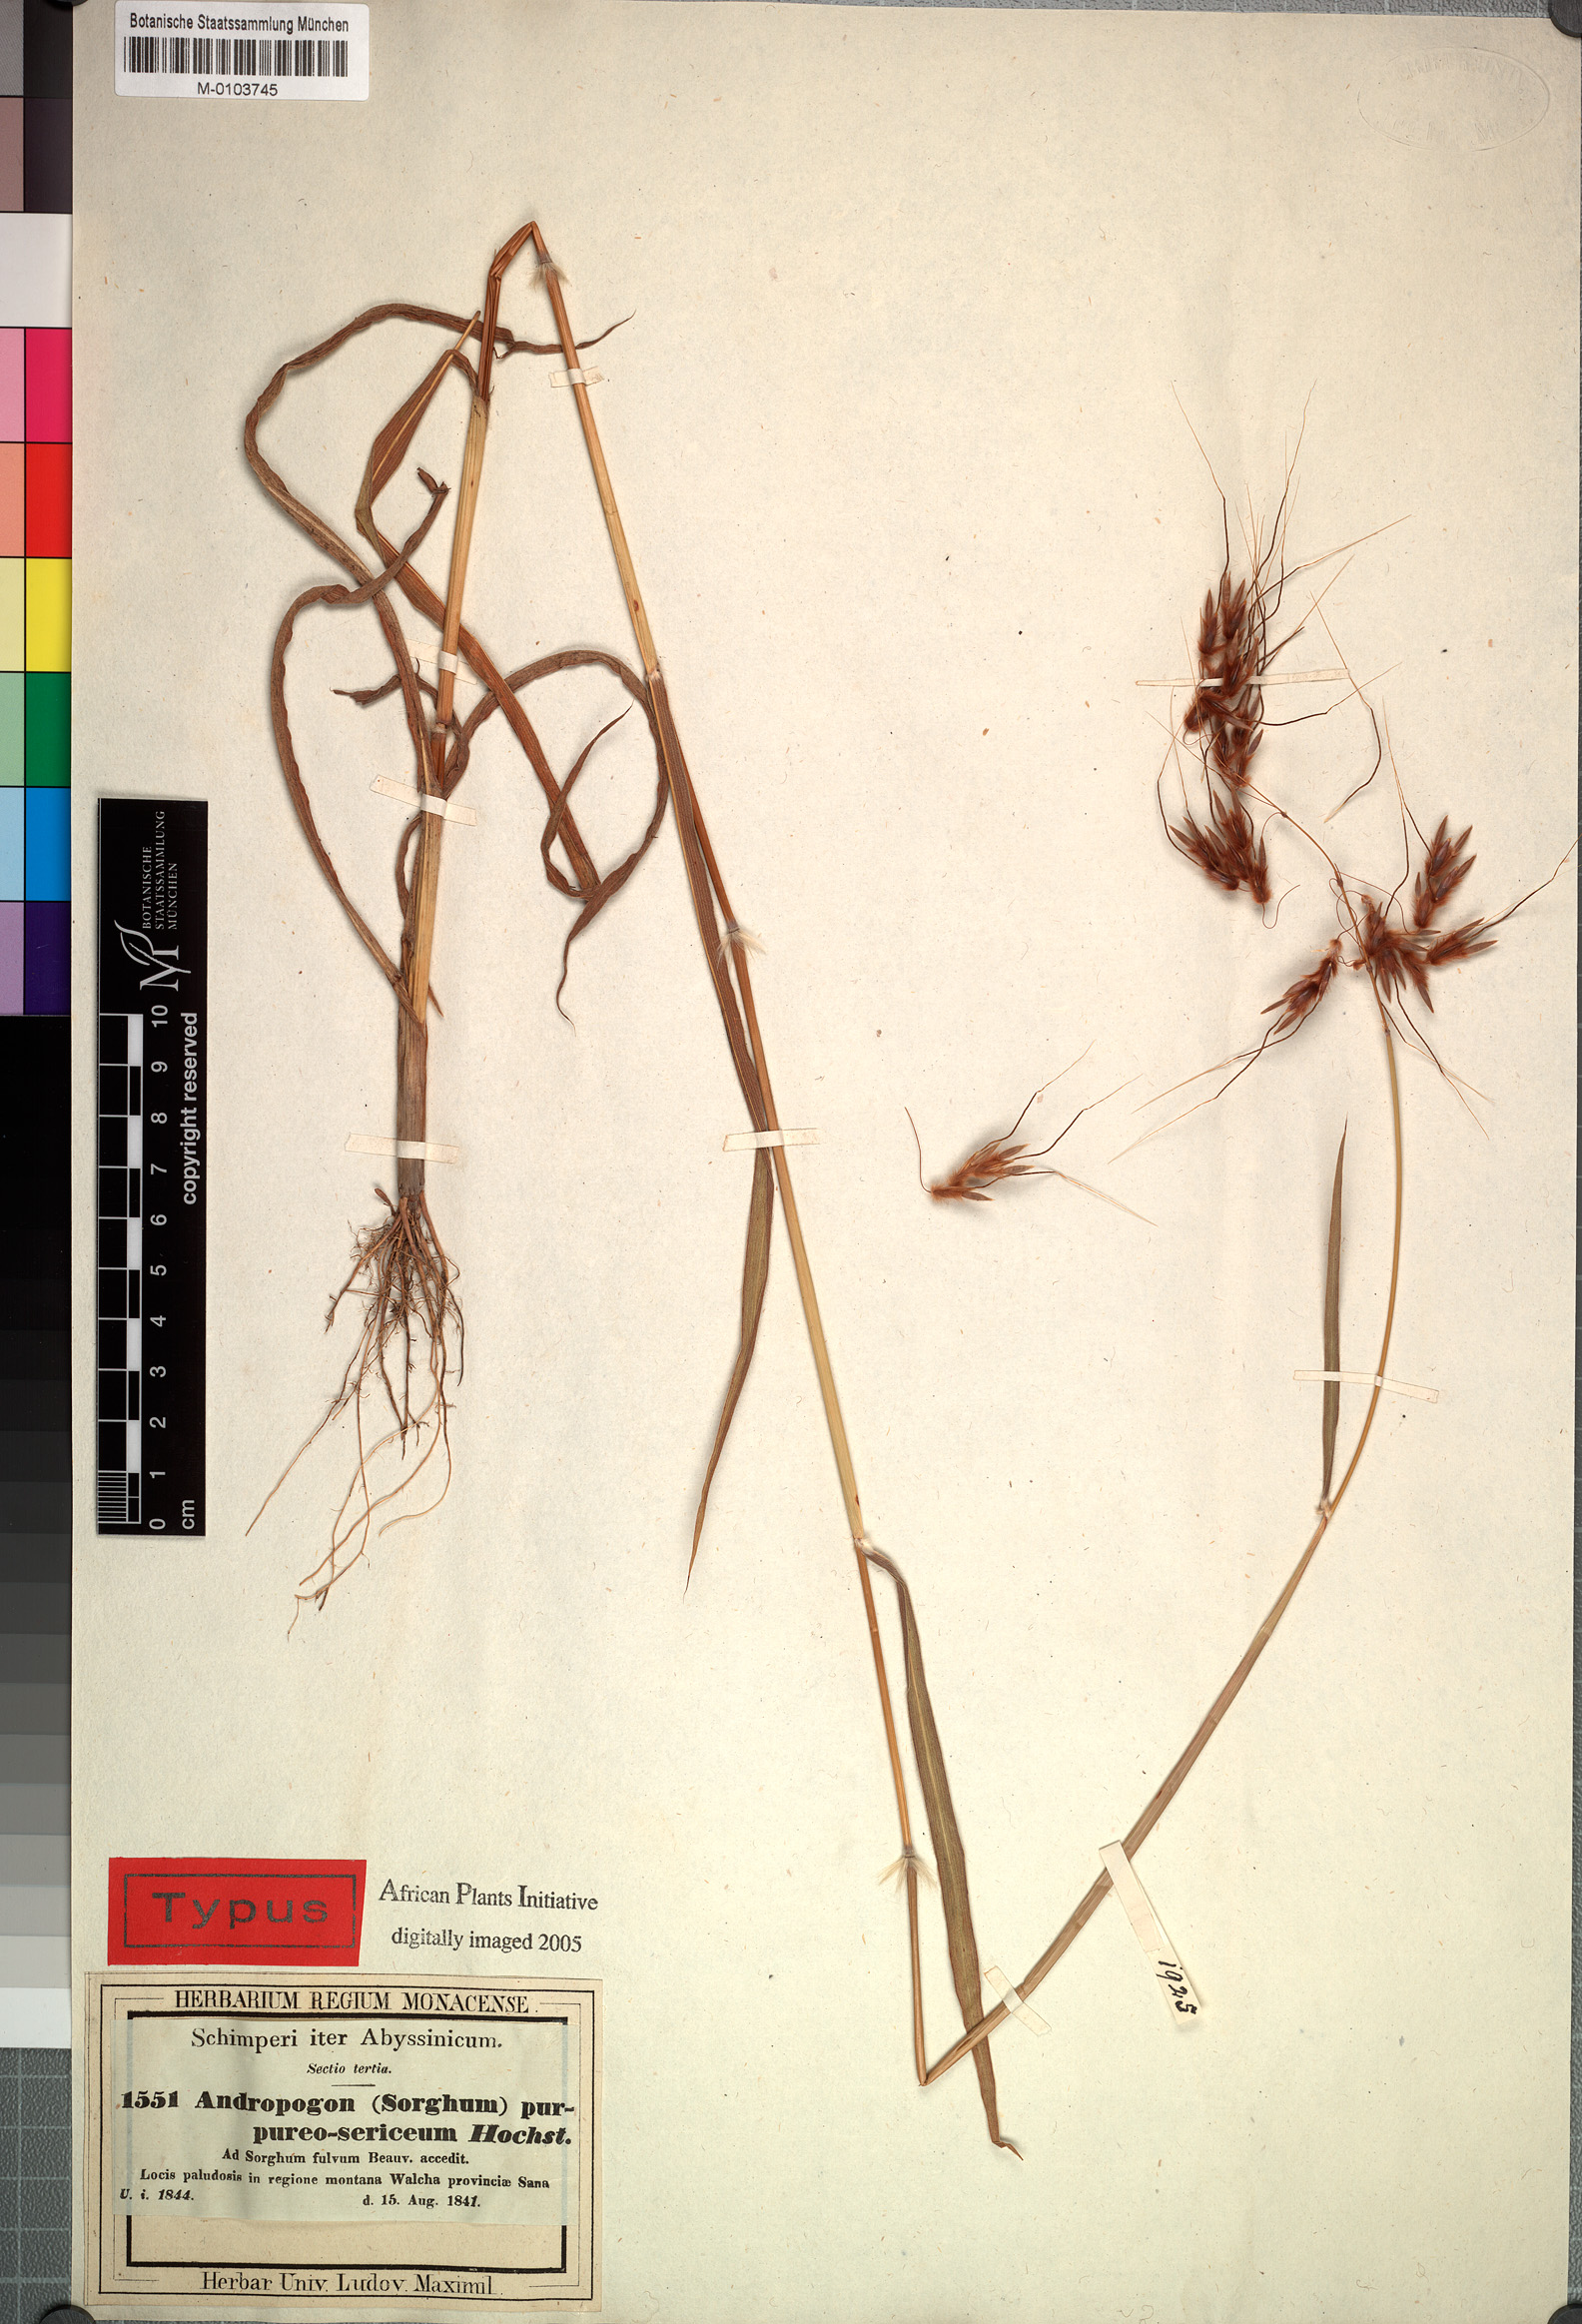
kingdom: Plantae
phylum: Tracheophyta
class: Liliopsida
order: Poales
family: Poaceae
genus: Sarga
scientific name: Sarga purpureosericea
